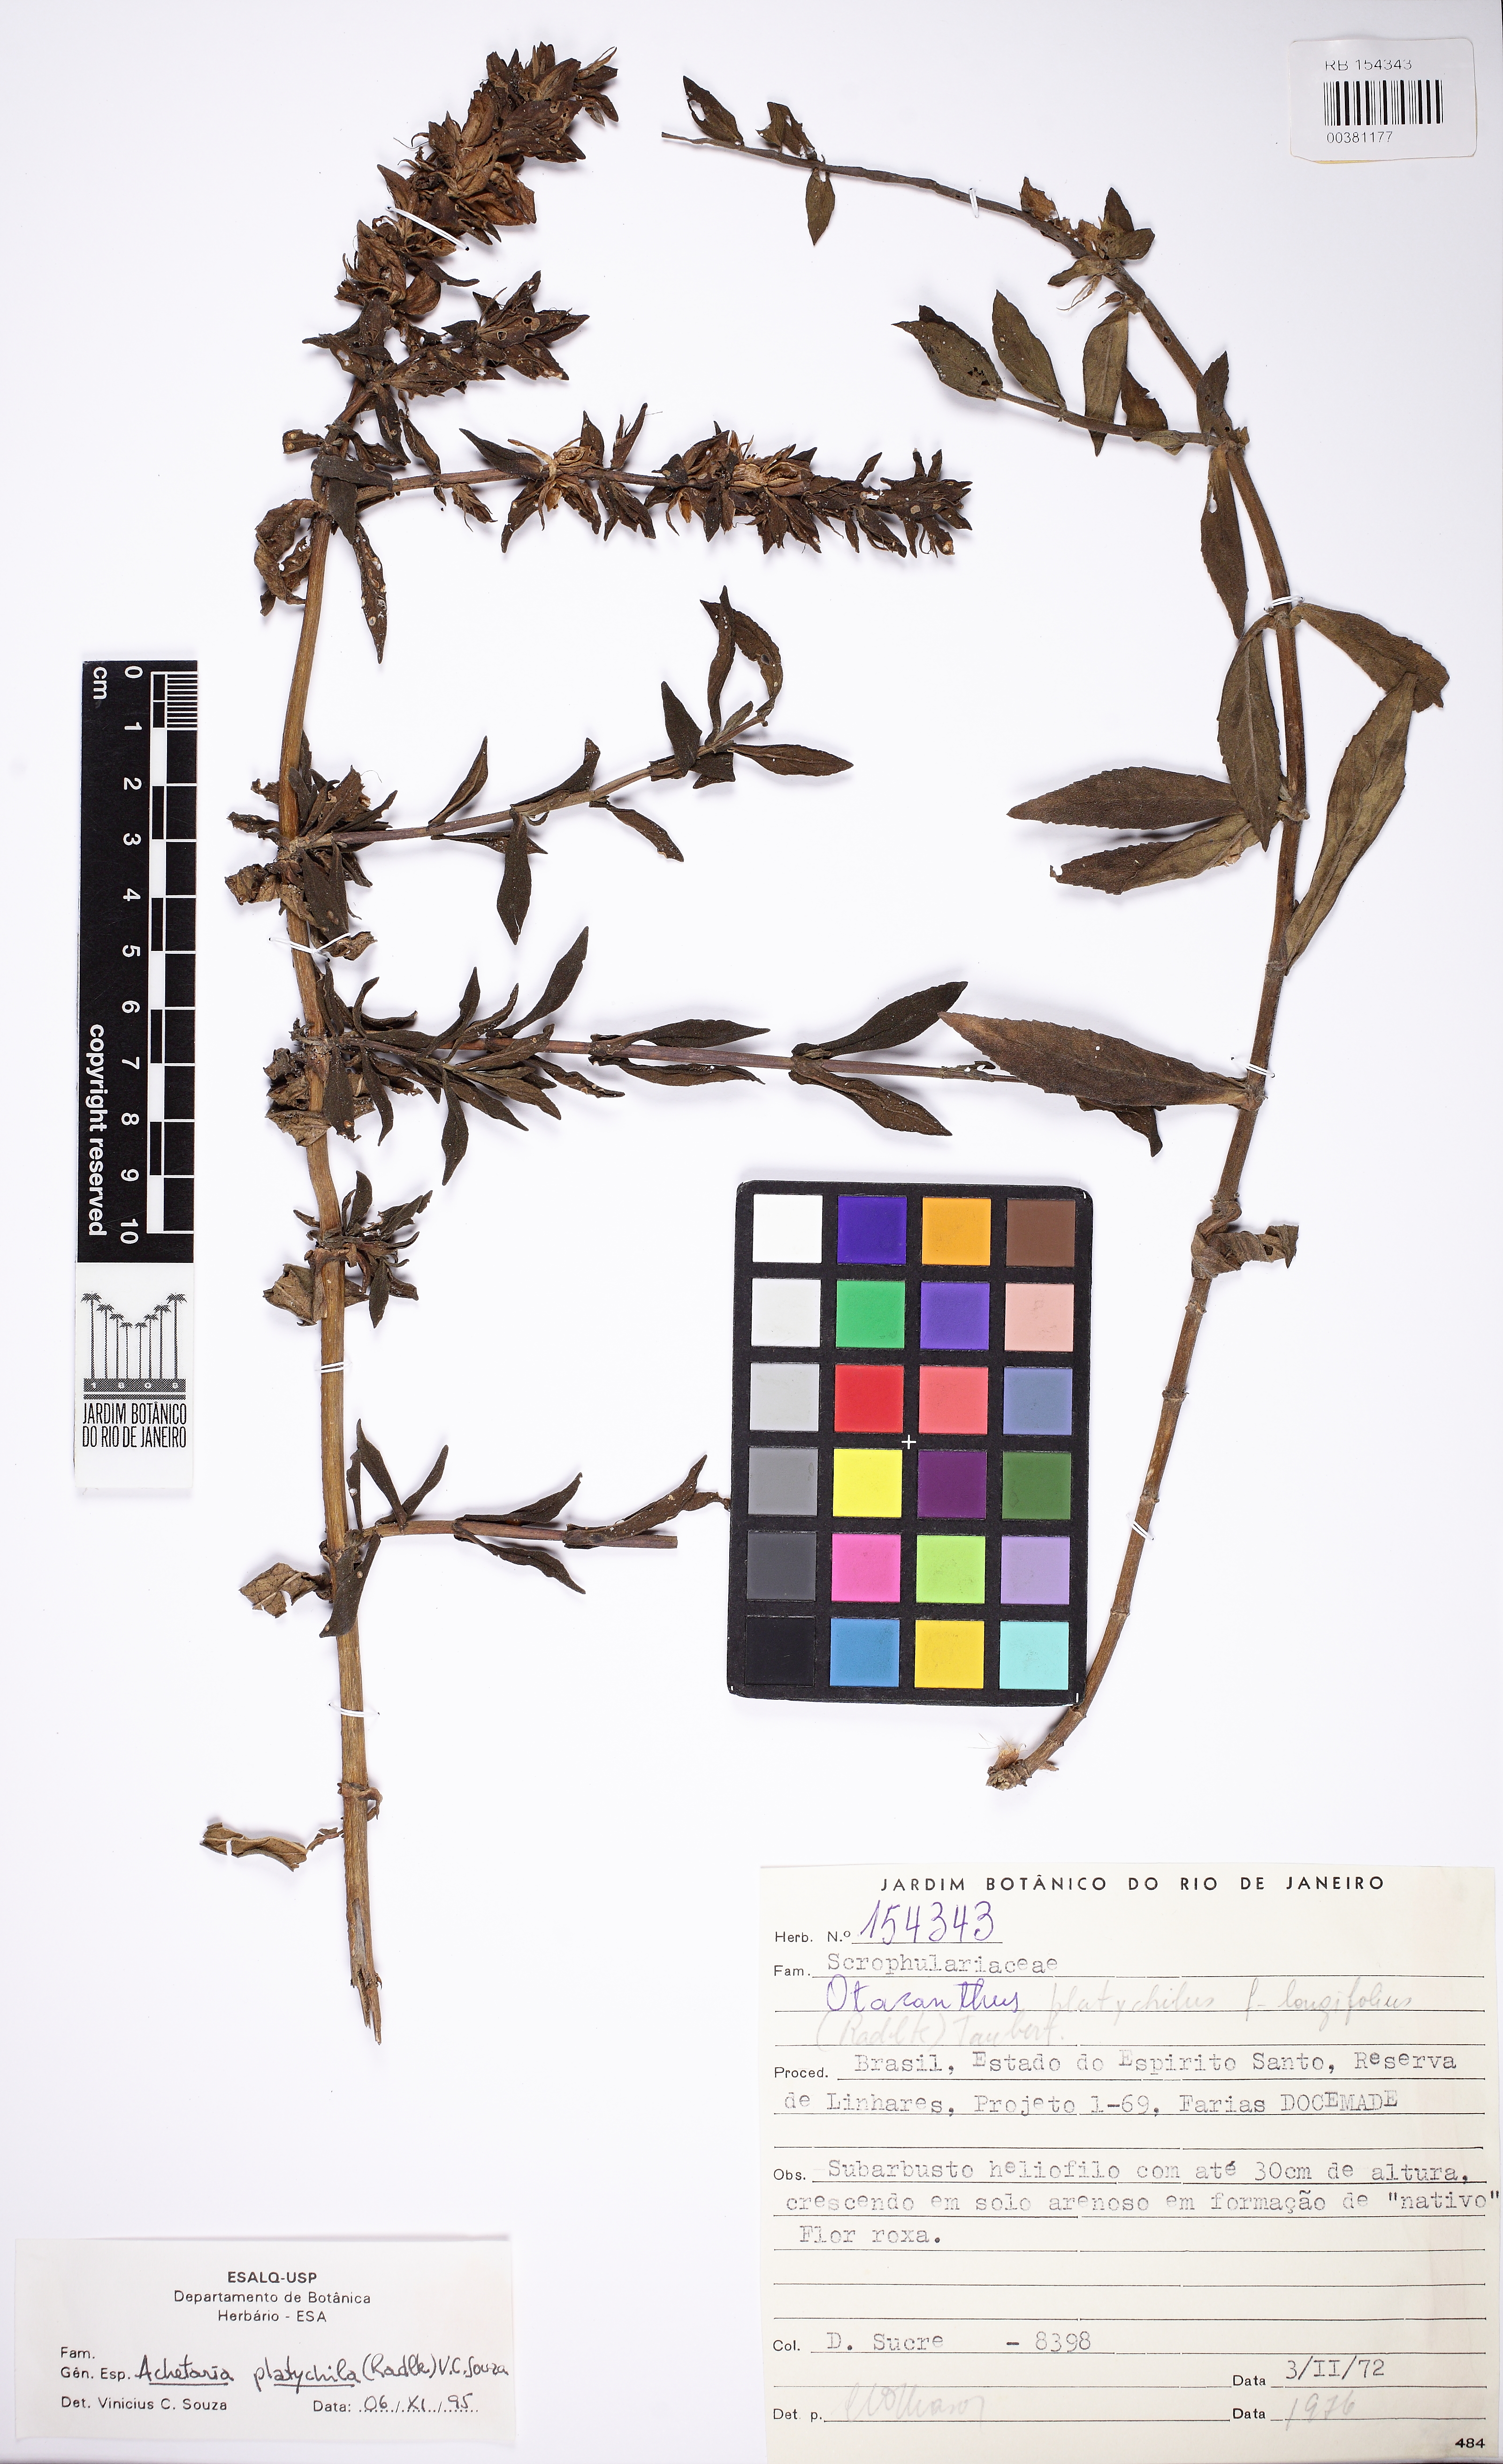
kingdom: Plantae
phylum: Tracheophyta
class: Magnoliopsida
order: Lamiales
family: Plantaginaceae
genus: Matourea
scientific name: Matourea platychila
